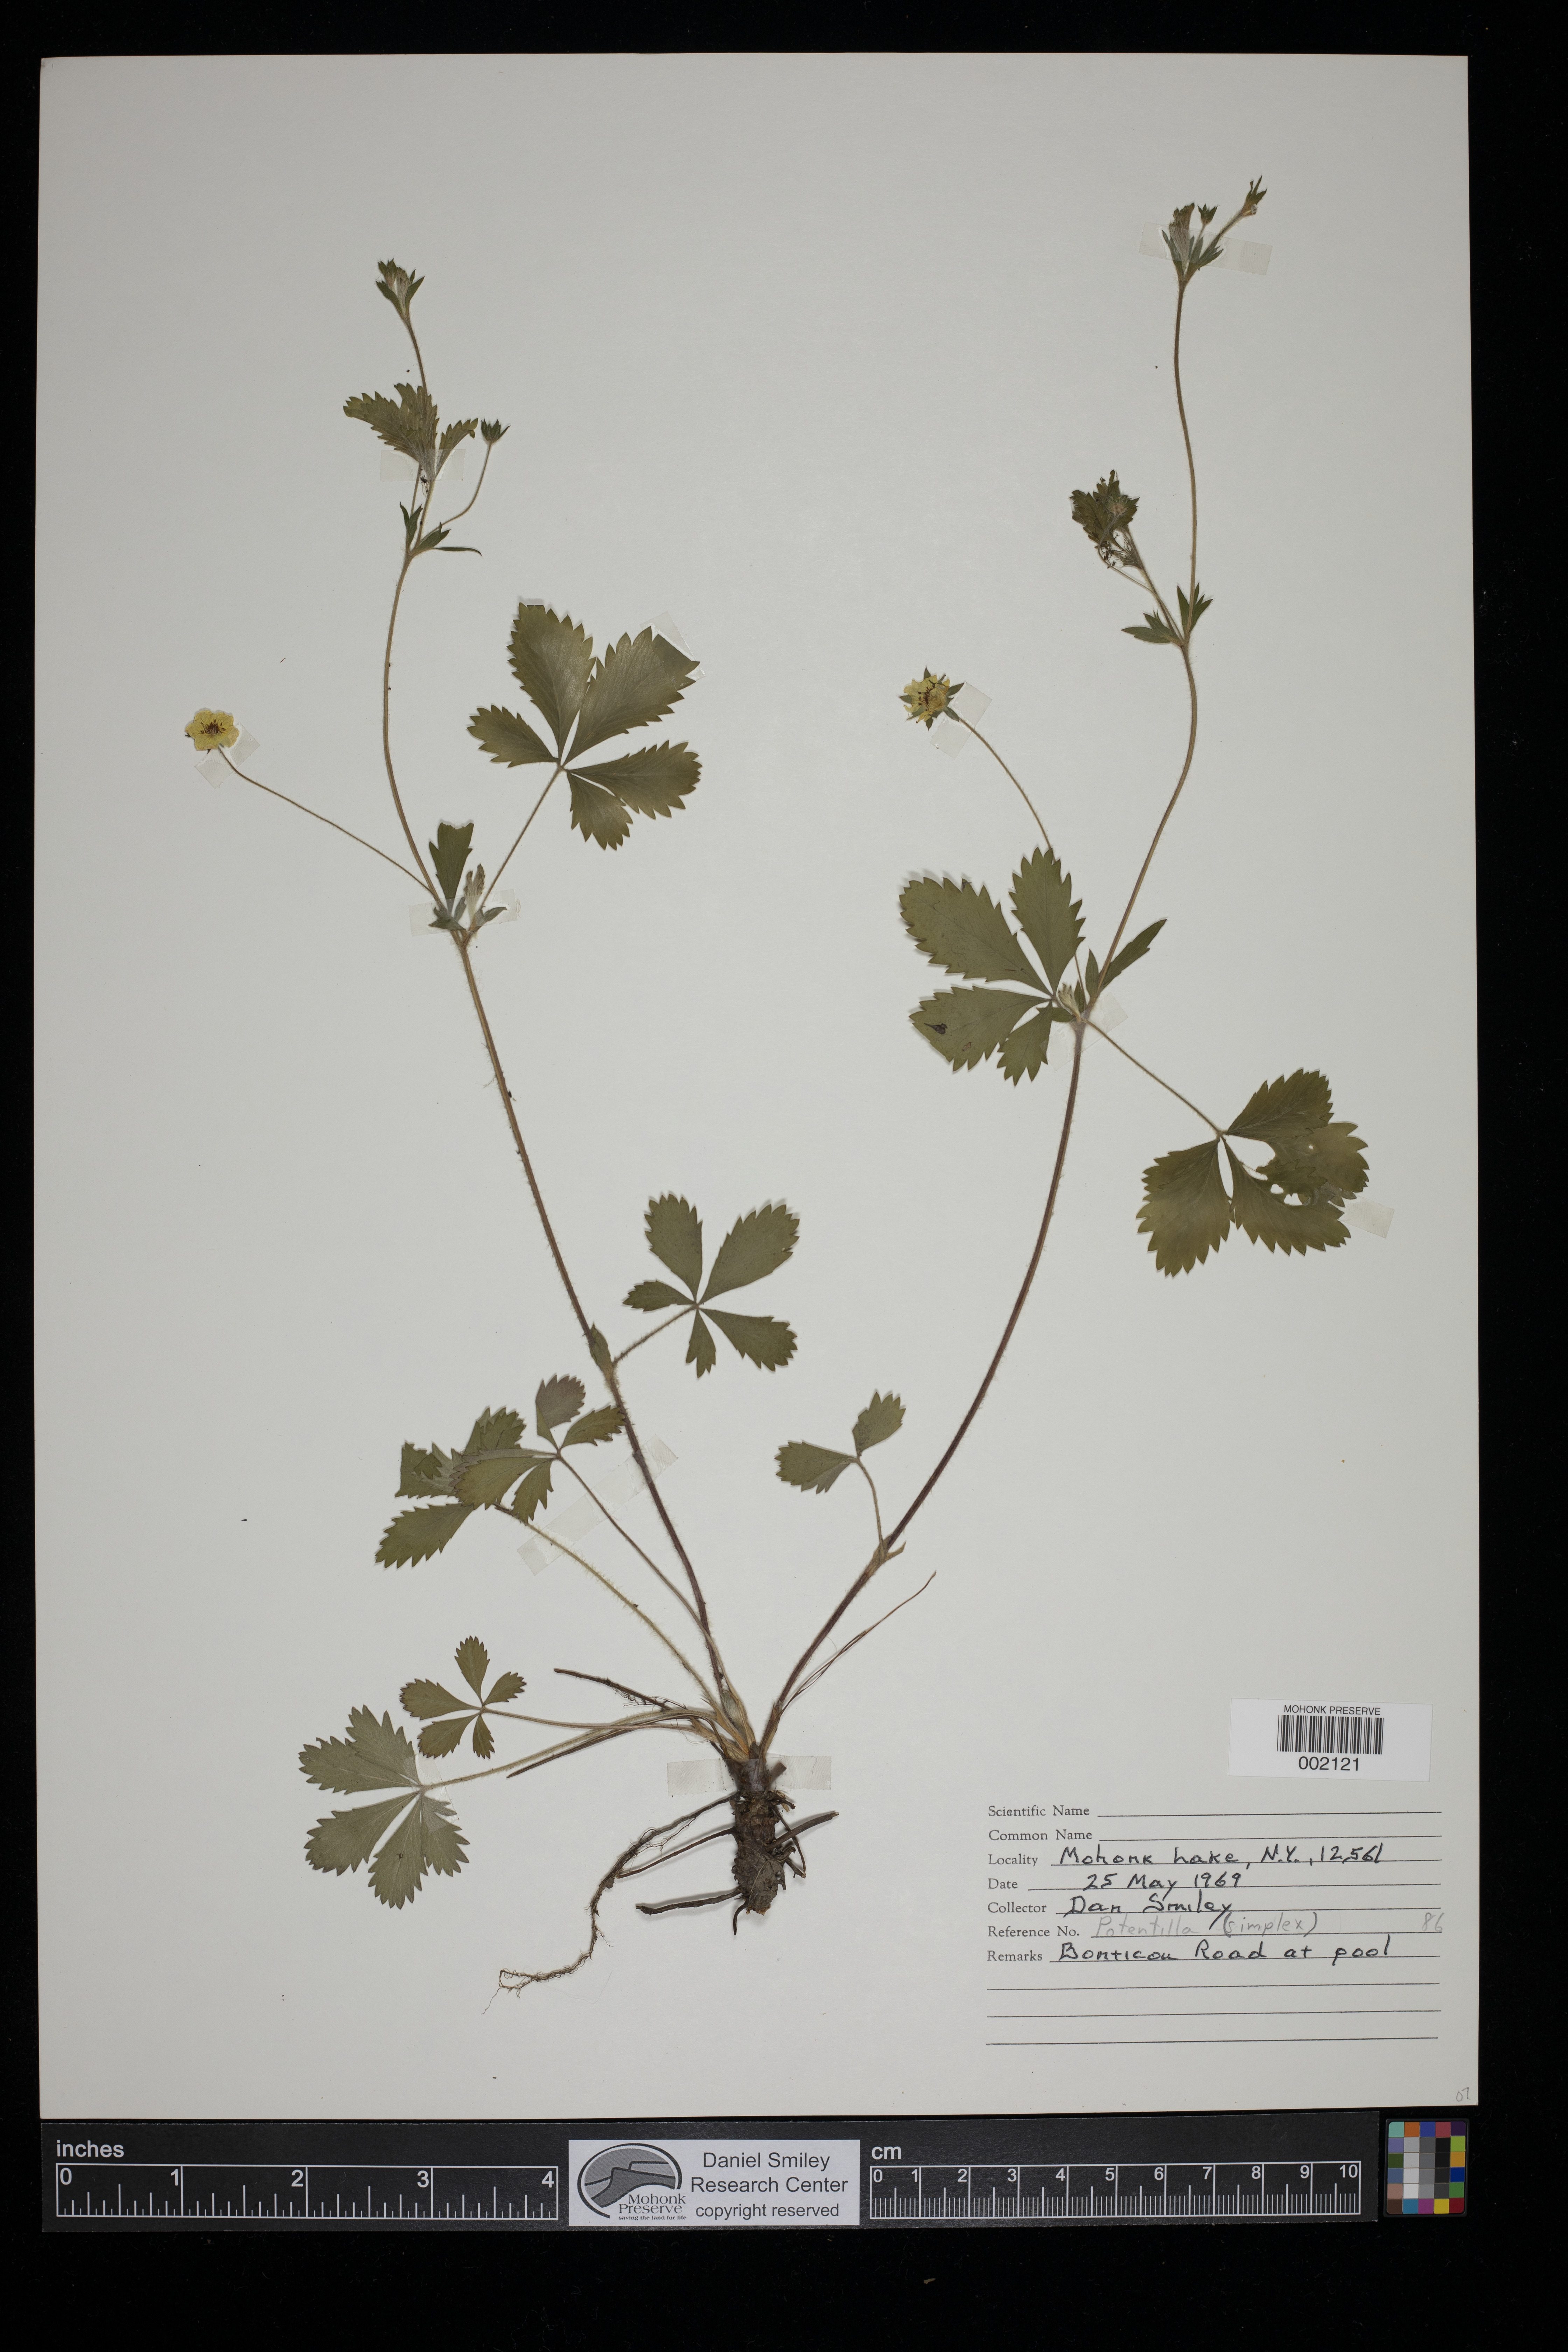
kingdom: Plantae
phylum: Tracheophyta
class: Magnoliopsida
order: Rosales
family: Rosaceae
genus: Potentilla
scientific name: Potentilla simplex
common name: Old field cinquefoil
